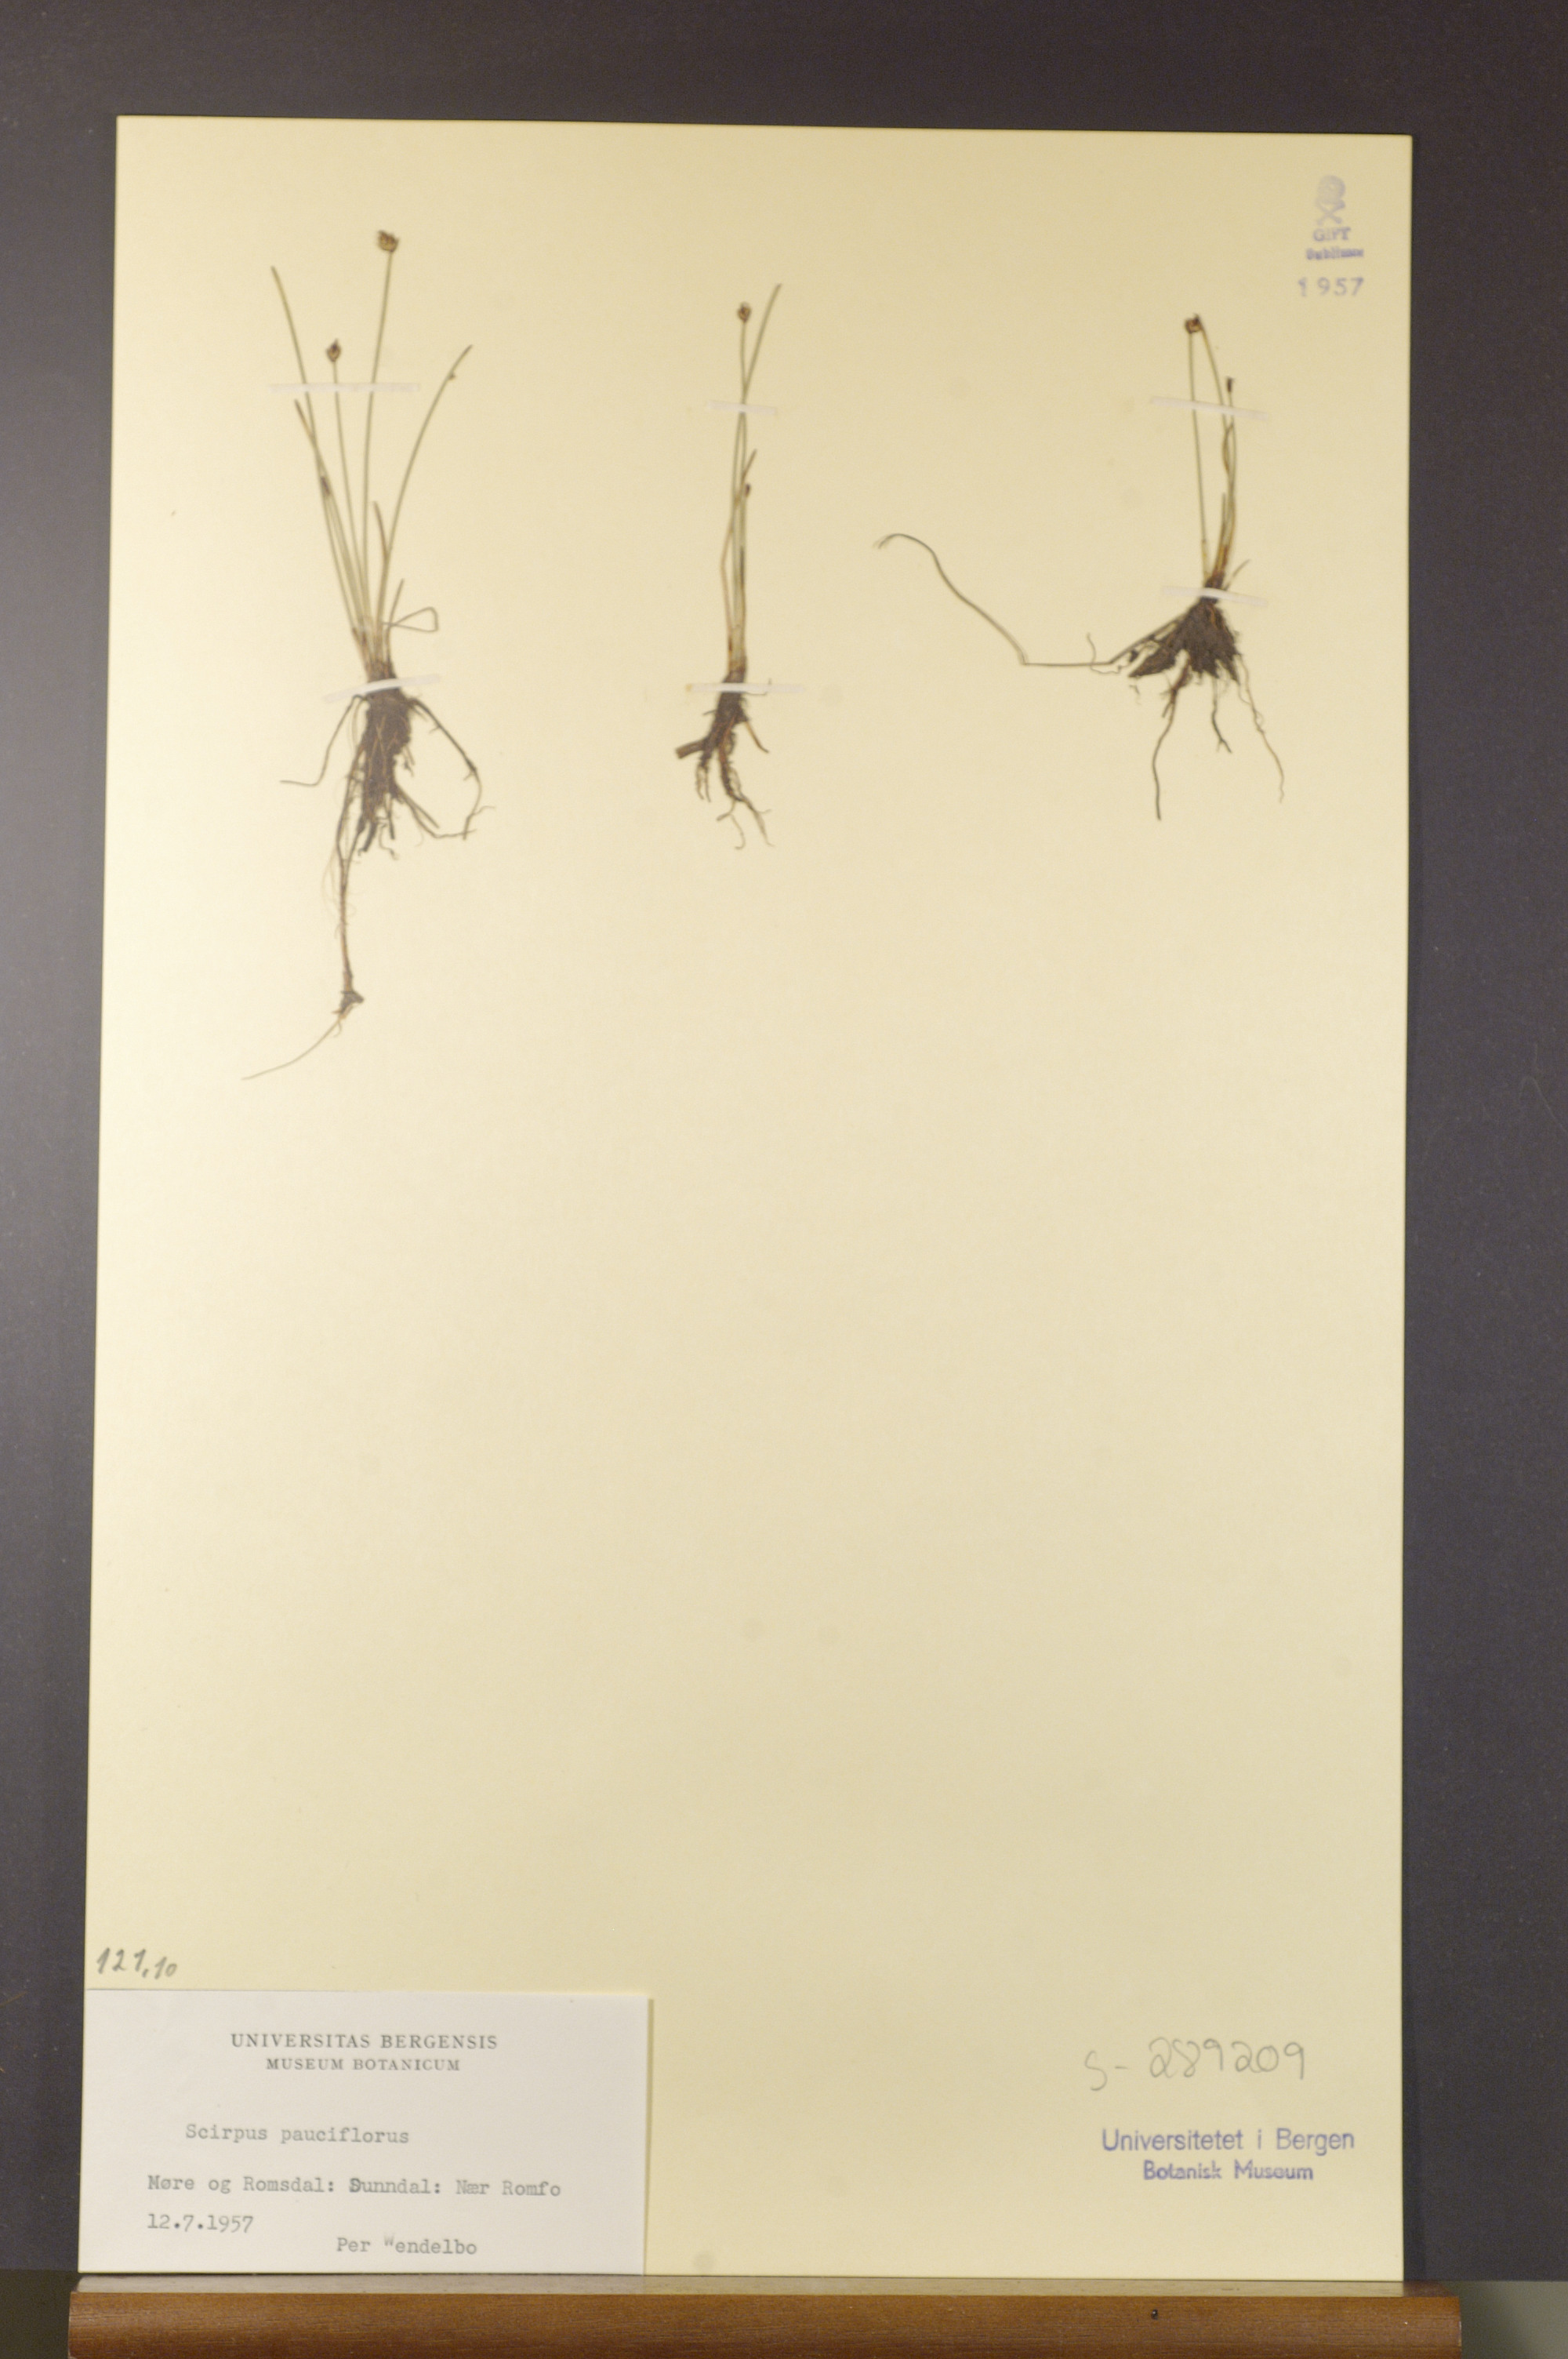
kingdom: Plantae
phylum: Tracheophyta
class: Liliopsida
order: Poales
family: Cyperaceae
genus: Eleocharis
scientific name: Eleocharis quinqueflora
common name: Few-flowered spike-rush
